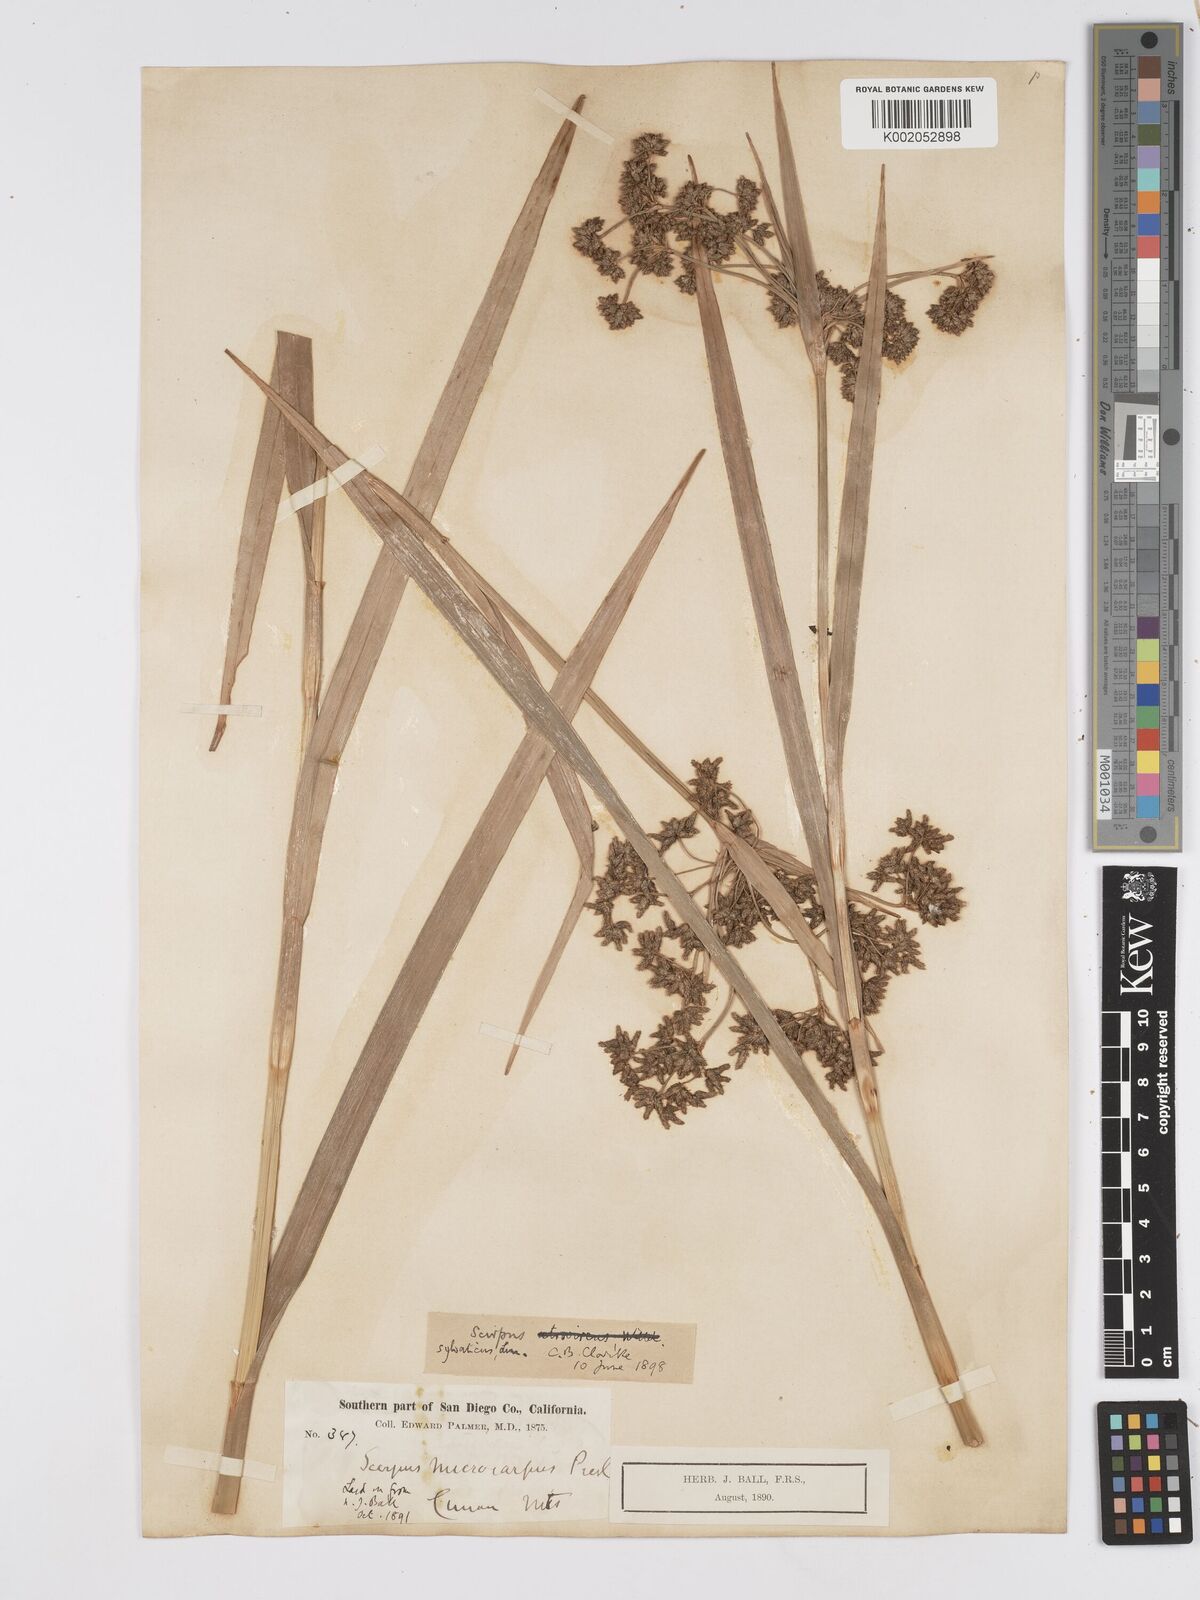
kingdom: Plantae
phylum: Tracheophyta
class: Liliopsida
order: Poales
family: Cyperaceae
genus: Scirpus
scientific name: Scirpus sylvaticus
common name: Wood club-rush
